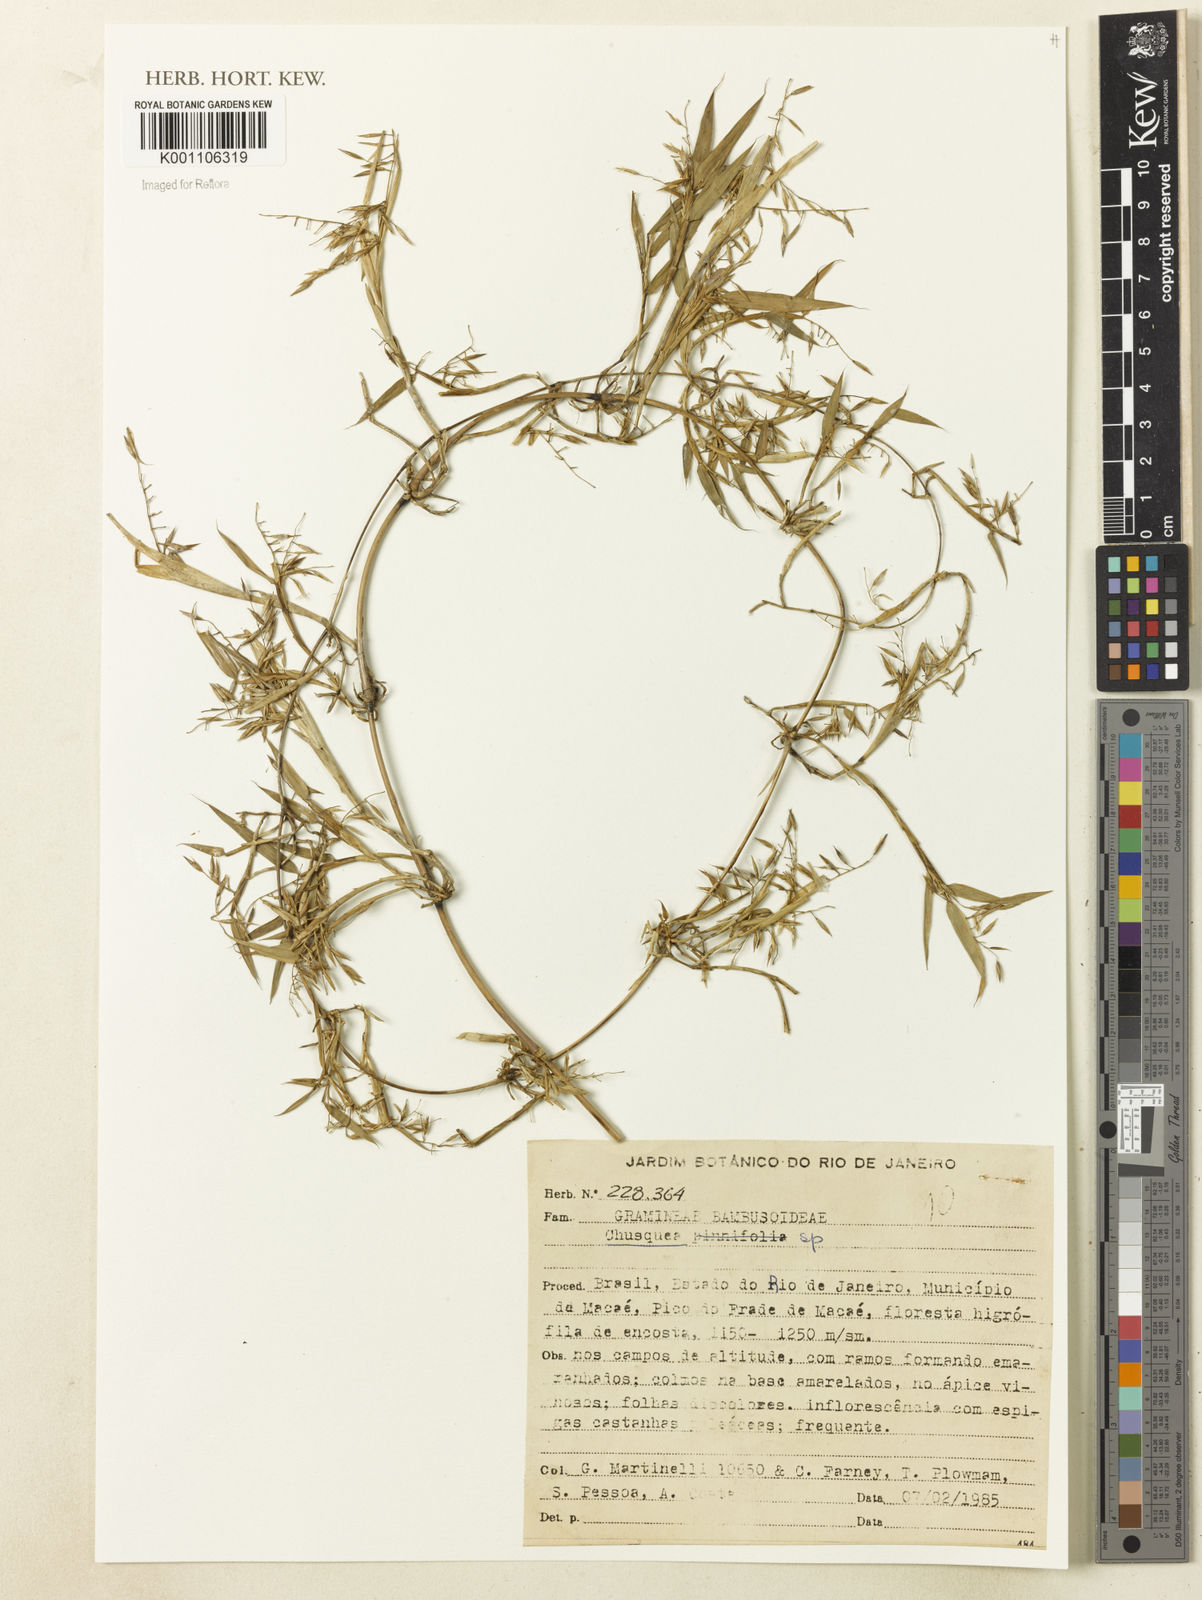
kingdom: Plantae
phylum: Tracheophyta
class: Liliopsida
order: Poales
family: Poaceae
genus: Chusquea
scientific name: Chusquea
